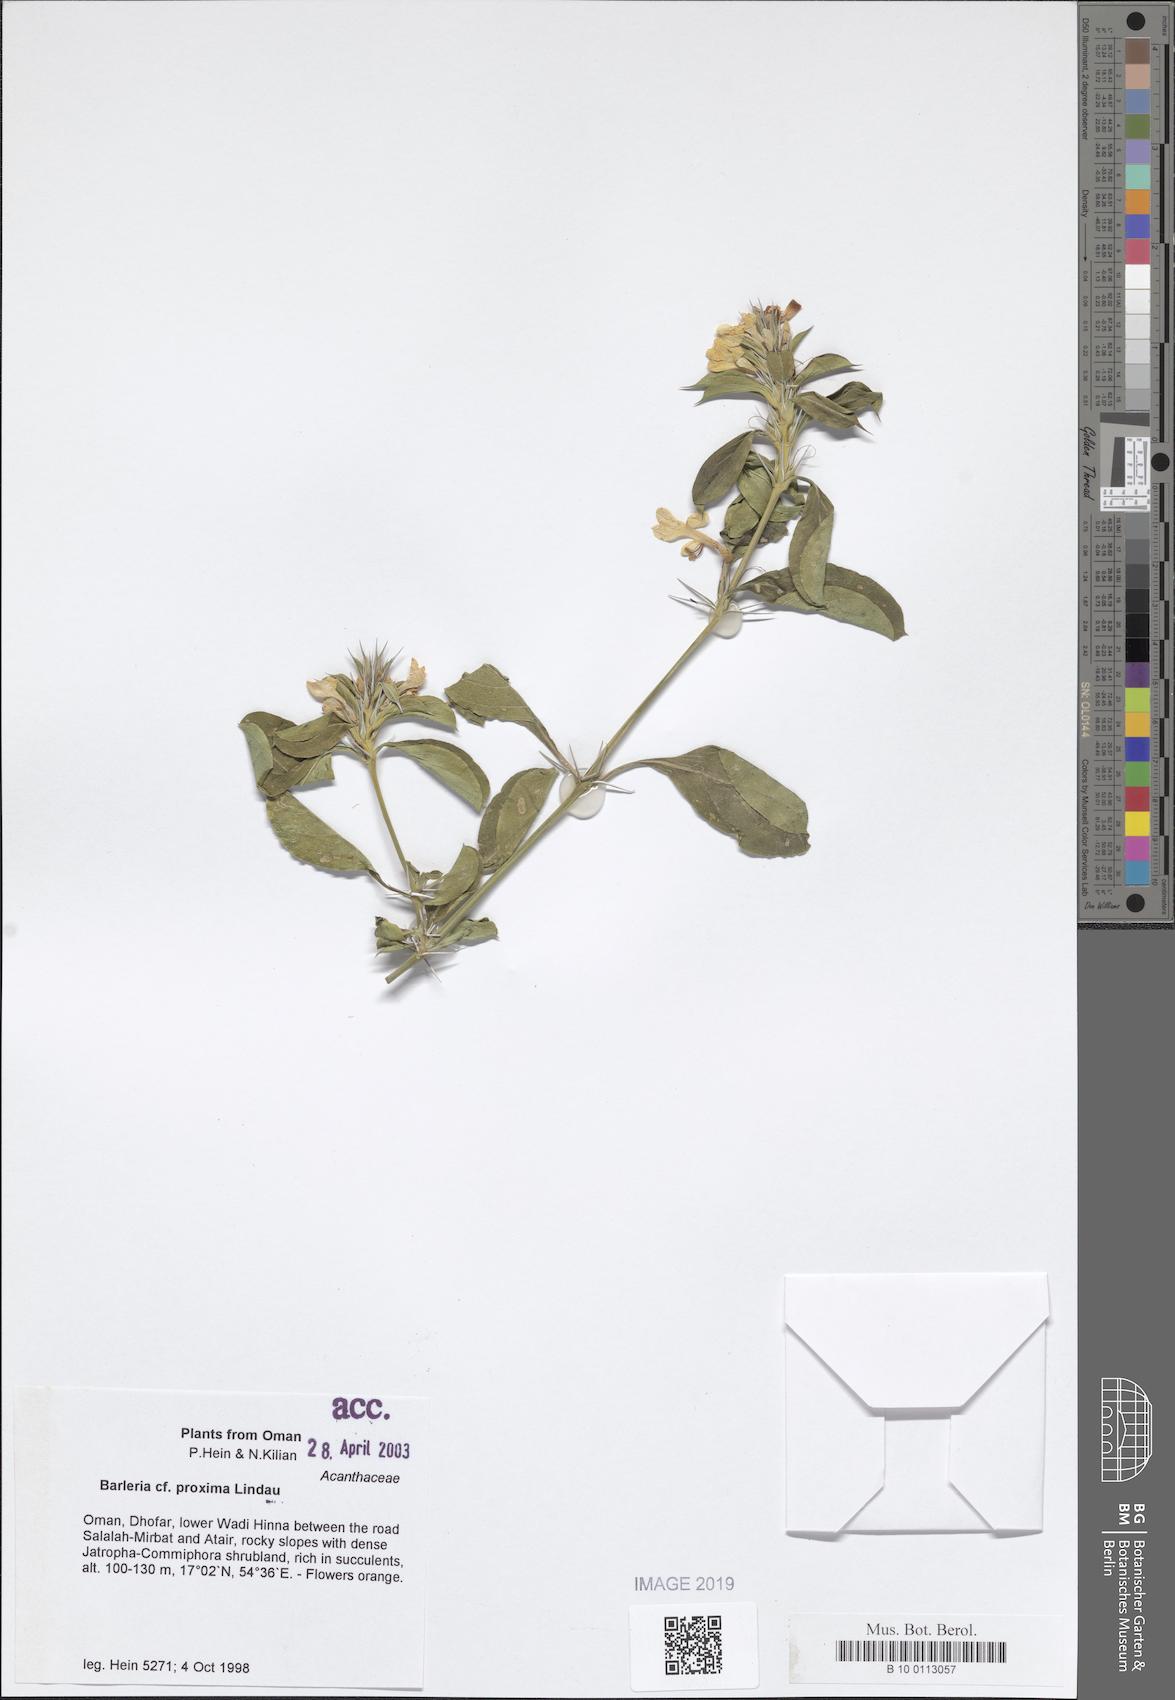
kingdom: Plantae
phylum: Tracheophyta
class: Magnoliopsida
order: Lamiales
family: Acanthaceae
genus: Barleria
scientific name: Barleria proxima
